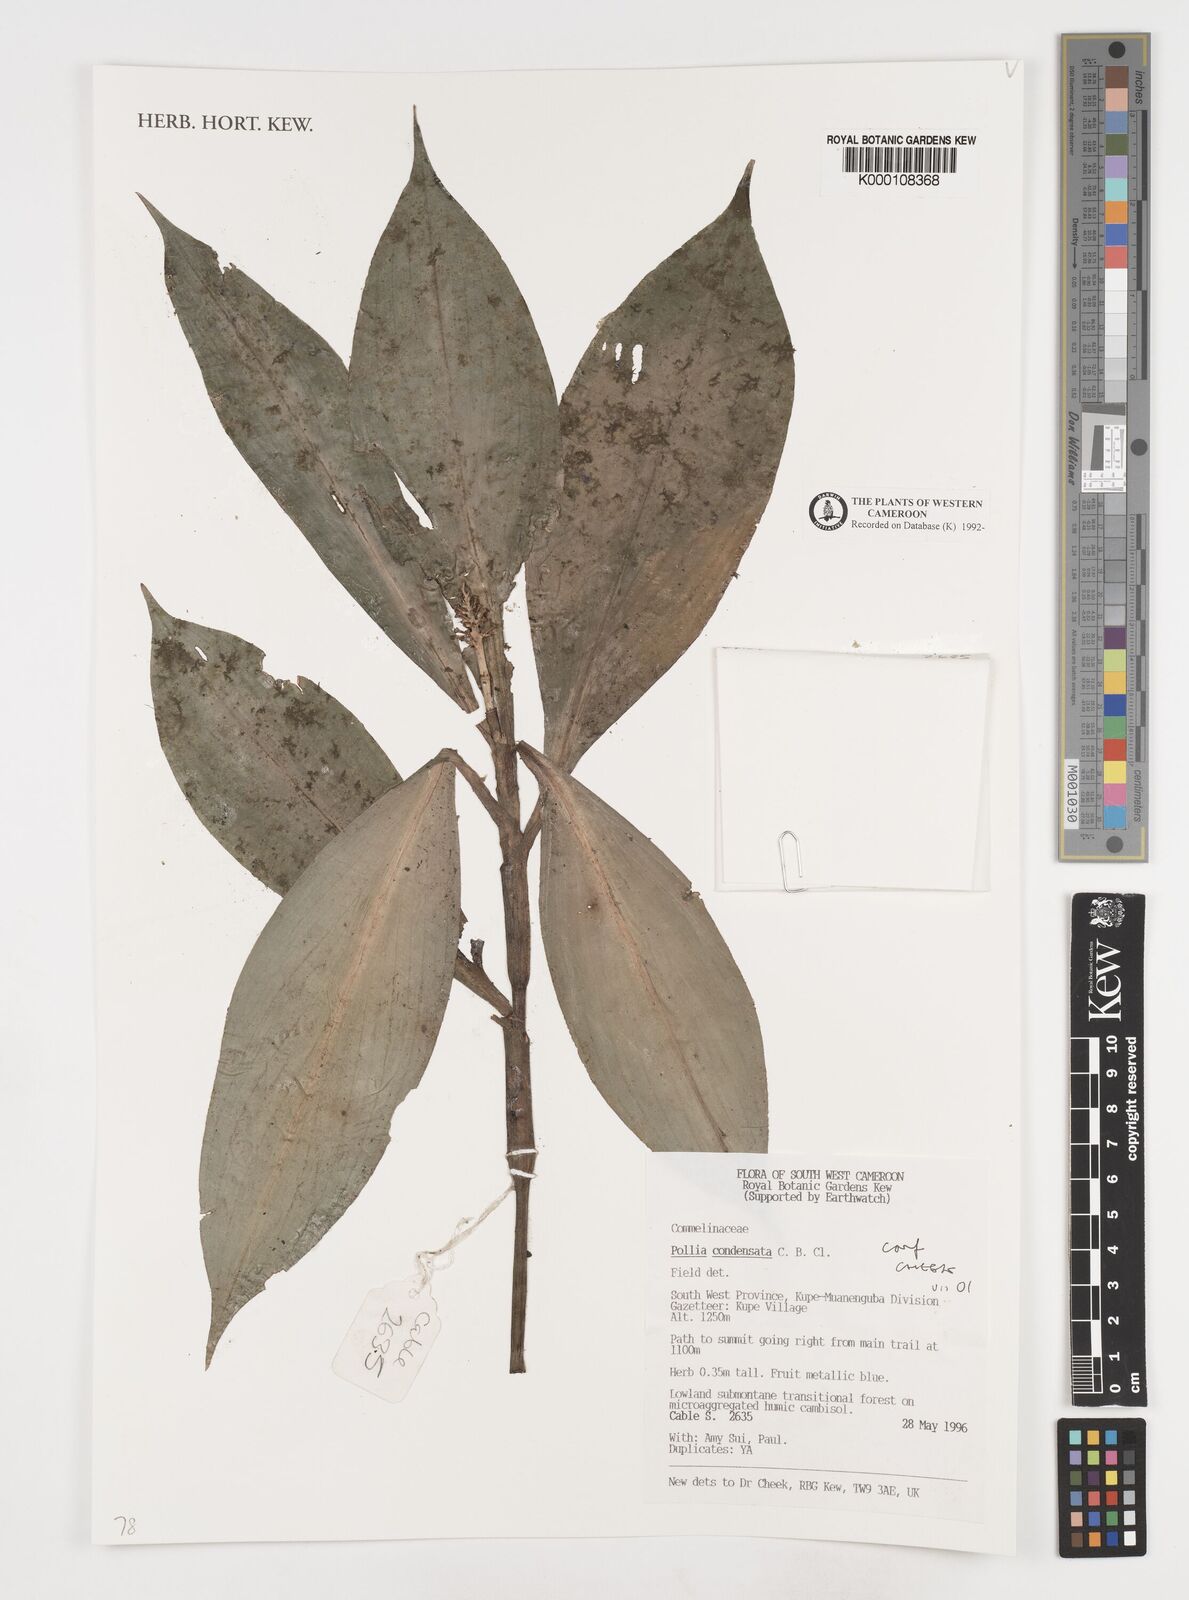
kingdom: Plantae
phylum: Tracheophyta
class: Liliopsida
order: Commelinales
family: Commelinaceae
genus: Pollia
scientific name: Pollia condensata
